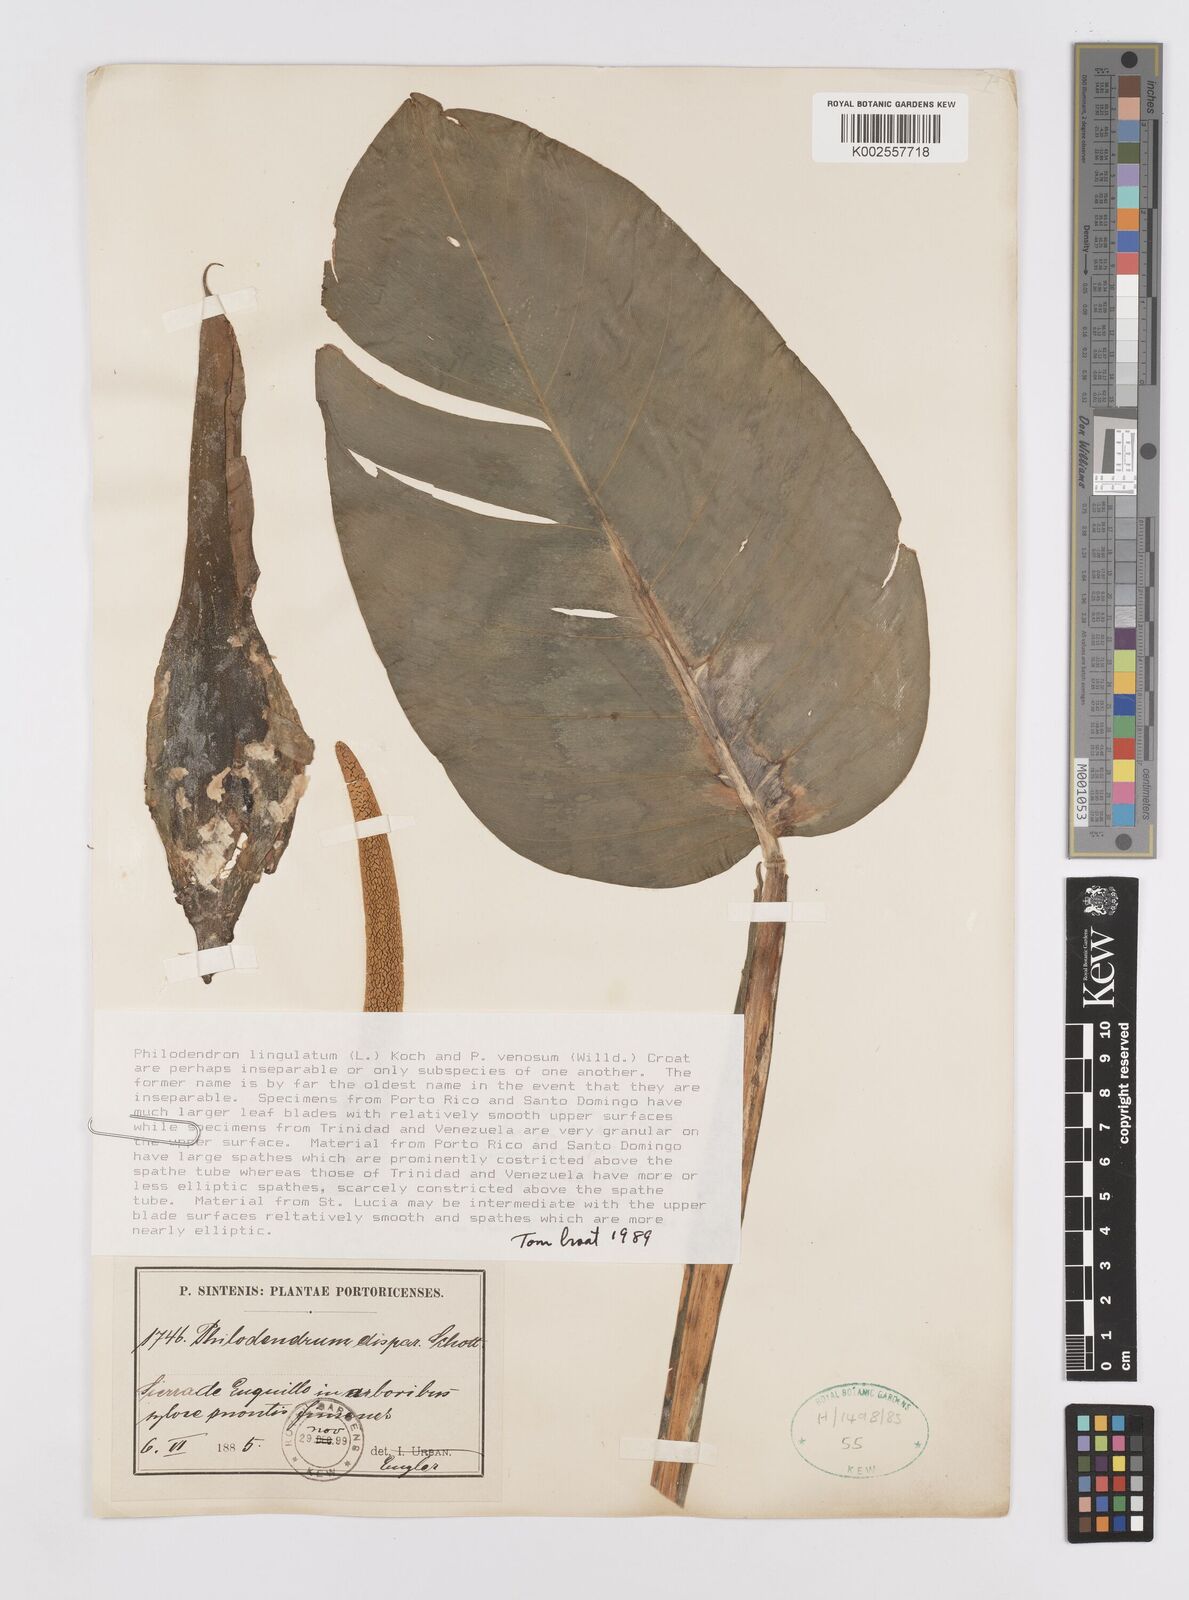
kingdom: Plantae
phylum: Tracheophyta
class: Liliopsida
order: Alismatales
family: Araceae
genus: Philodendron
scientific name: Philodendron lingulatum
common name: Treelover
